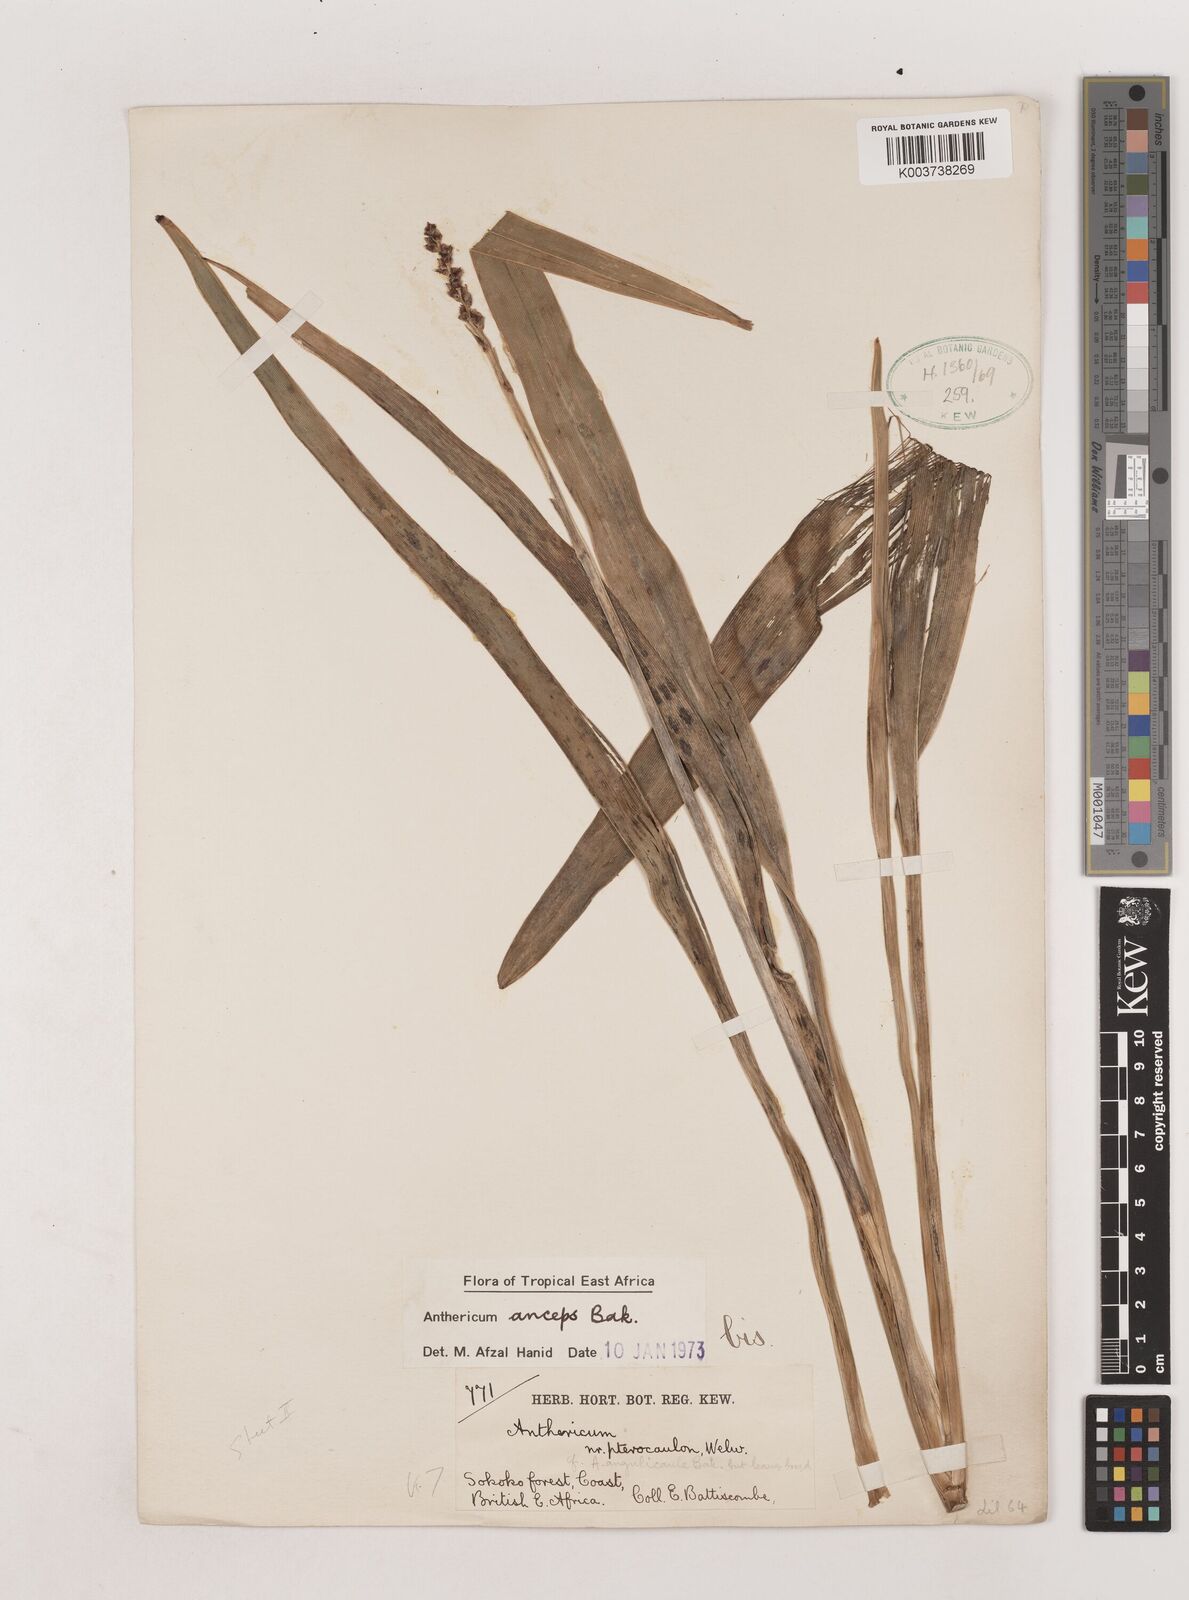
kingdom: Plantae
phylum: Tracheophyta
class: Liliopsida
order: Asparagales
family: Asparagaceae
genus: Chlorophytum
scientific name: Chlorophytum sphacelatum
